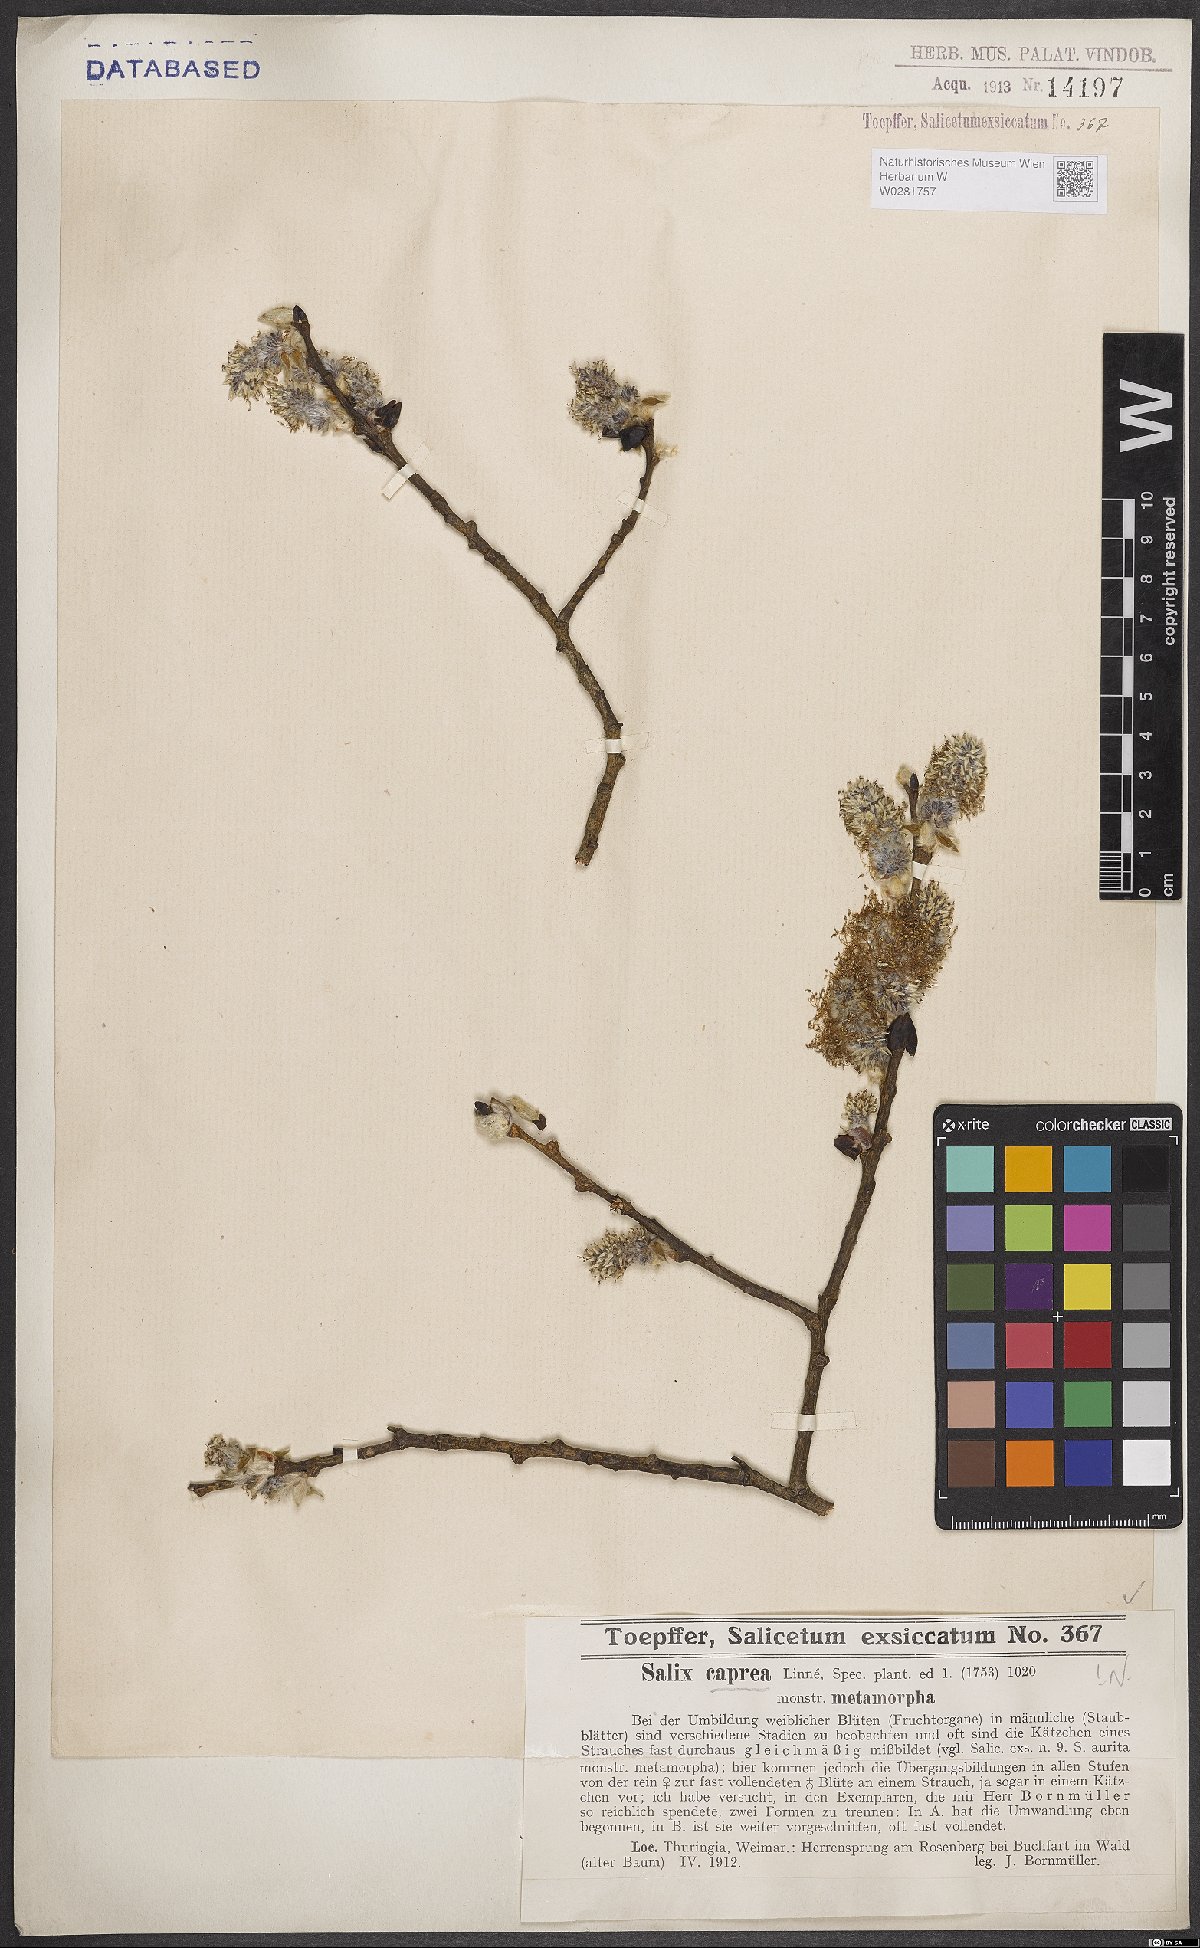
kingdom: Plantae
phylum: Tracheophyta
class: Magnoliopsida
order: Malpighiales
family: Salicaceae
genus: Salix
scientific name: Salix caprea
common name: Goat willow
